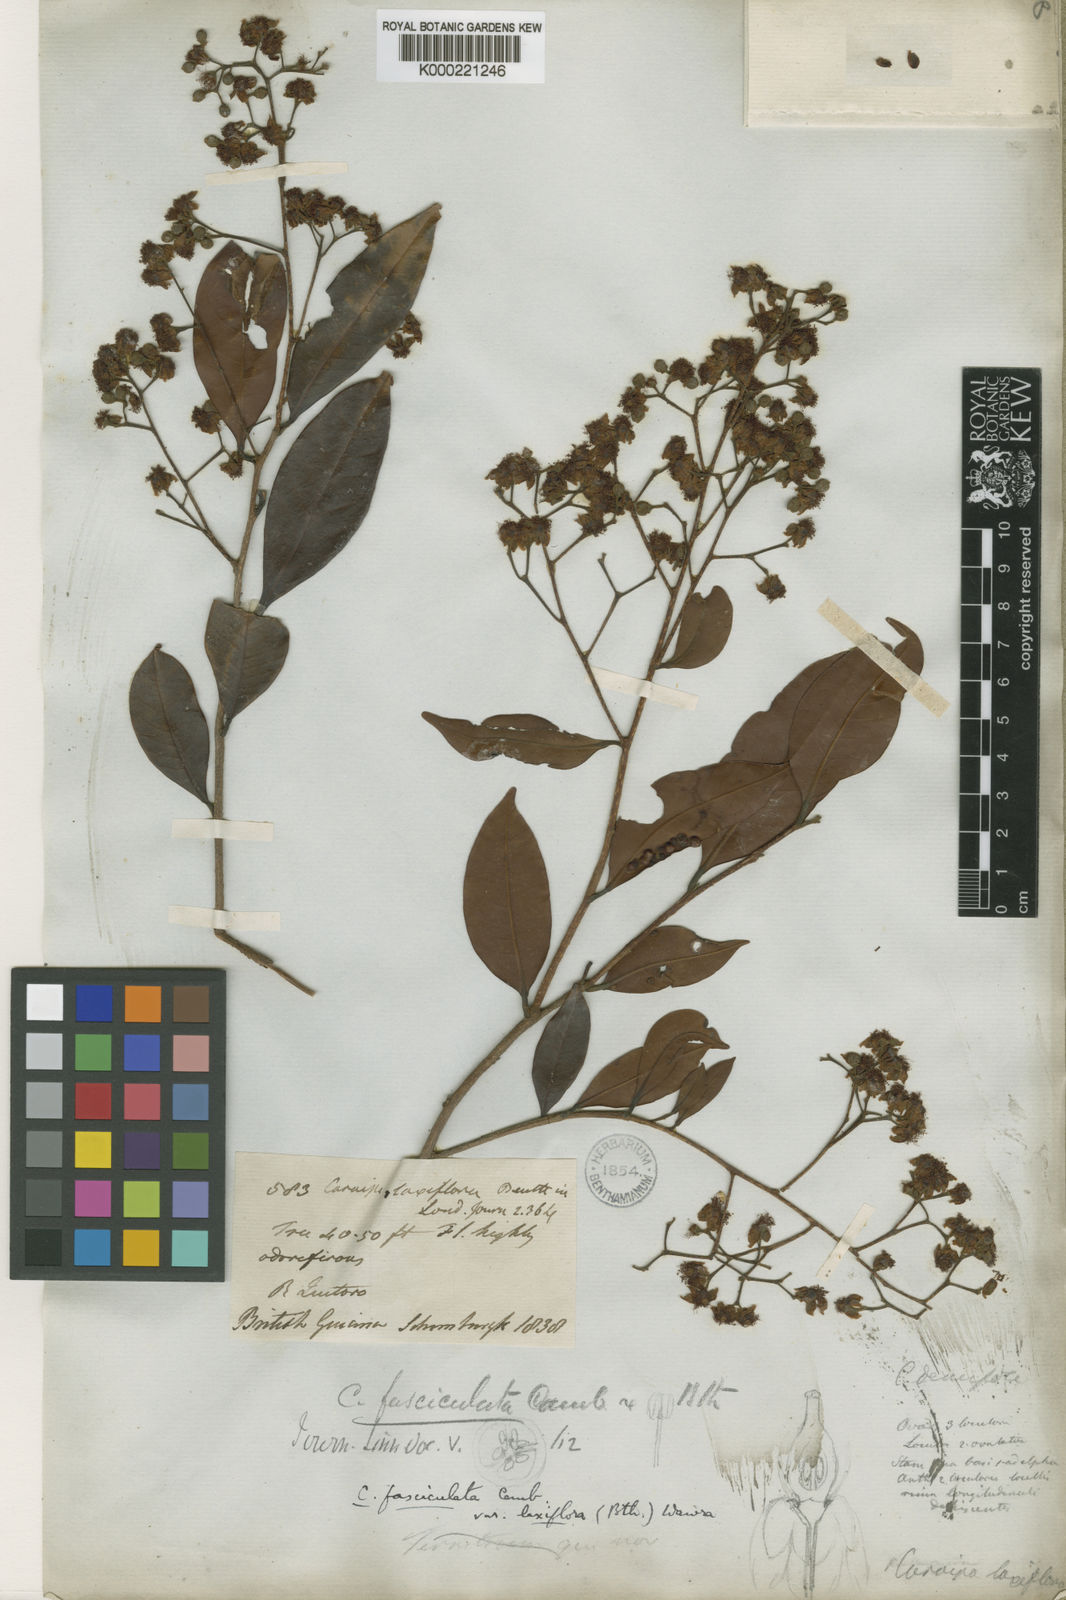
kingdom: Plantae
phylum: Tracheophyta
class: Magnoliopsida
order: Malpighiales
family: Calophyllaceae
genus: Caraipa
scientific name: Caraipa densifolia
